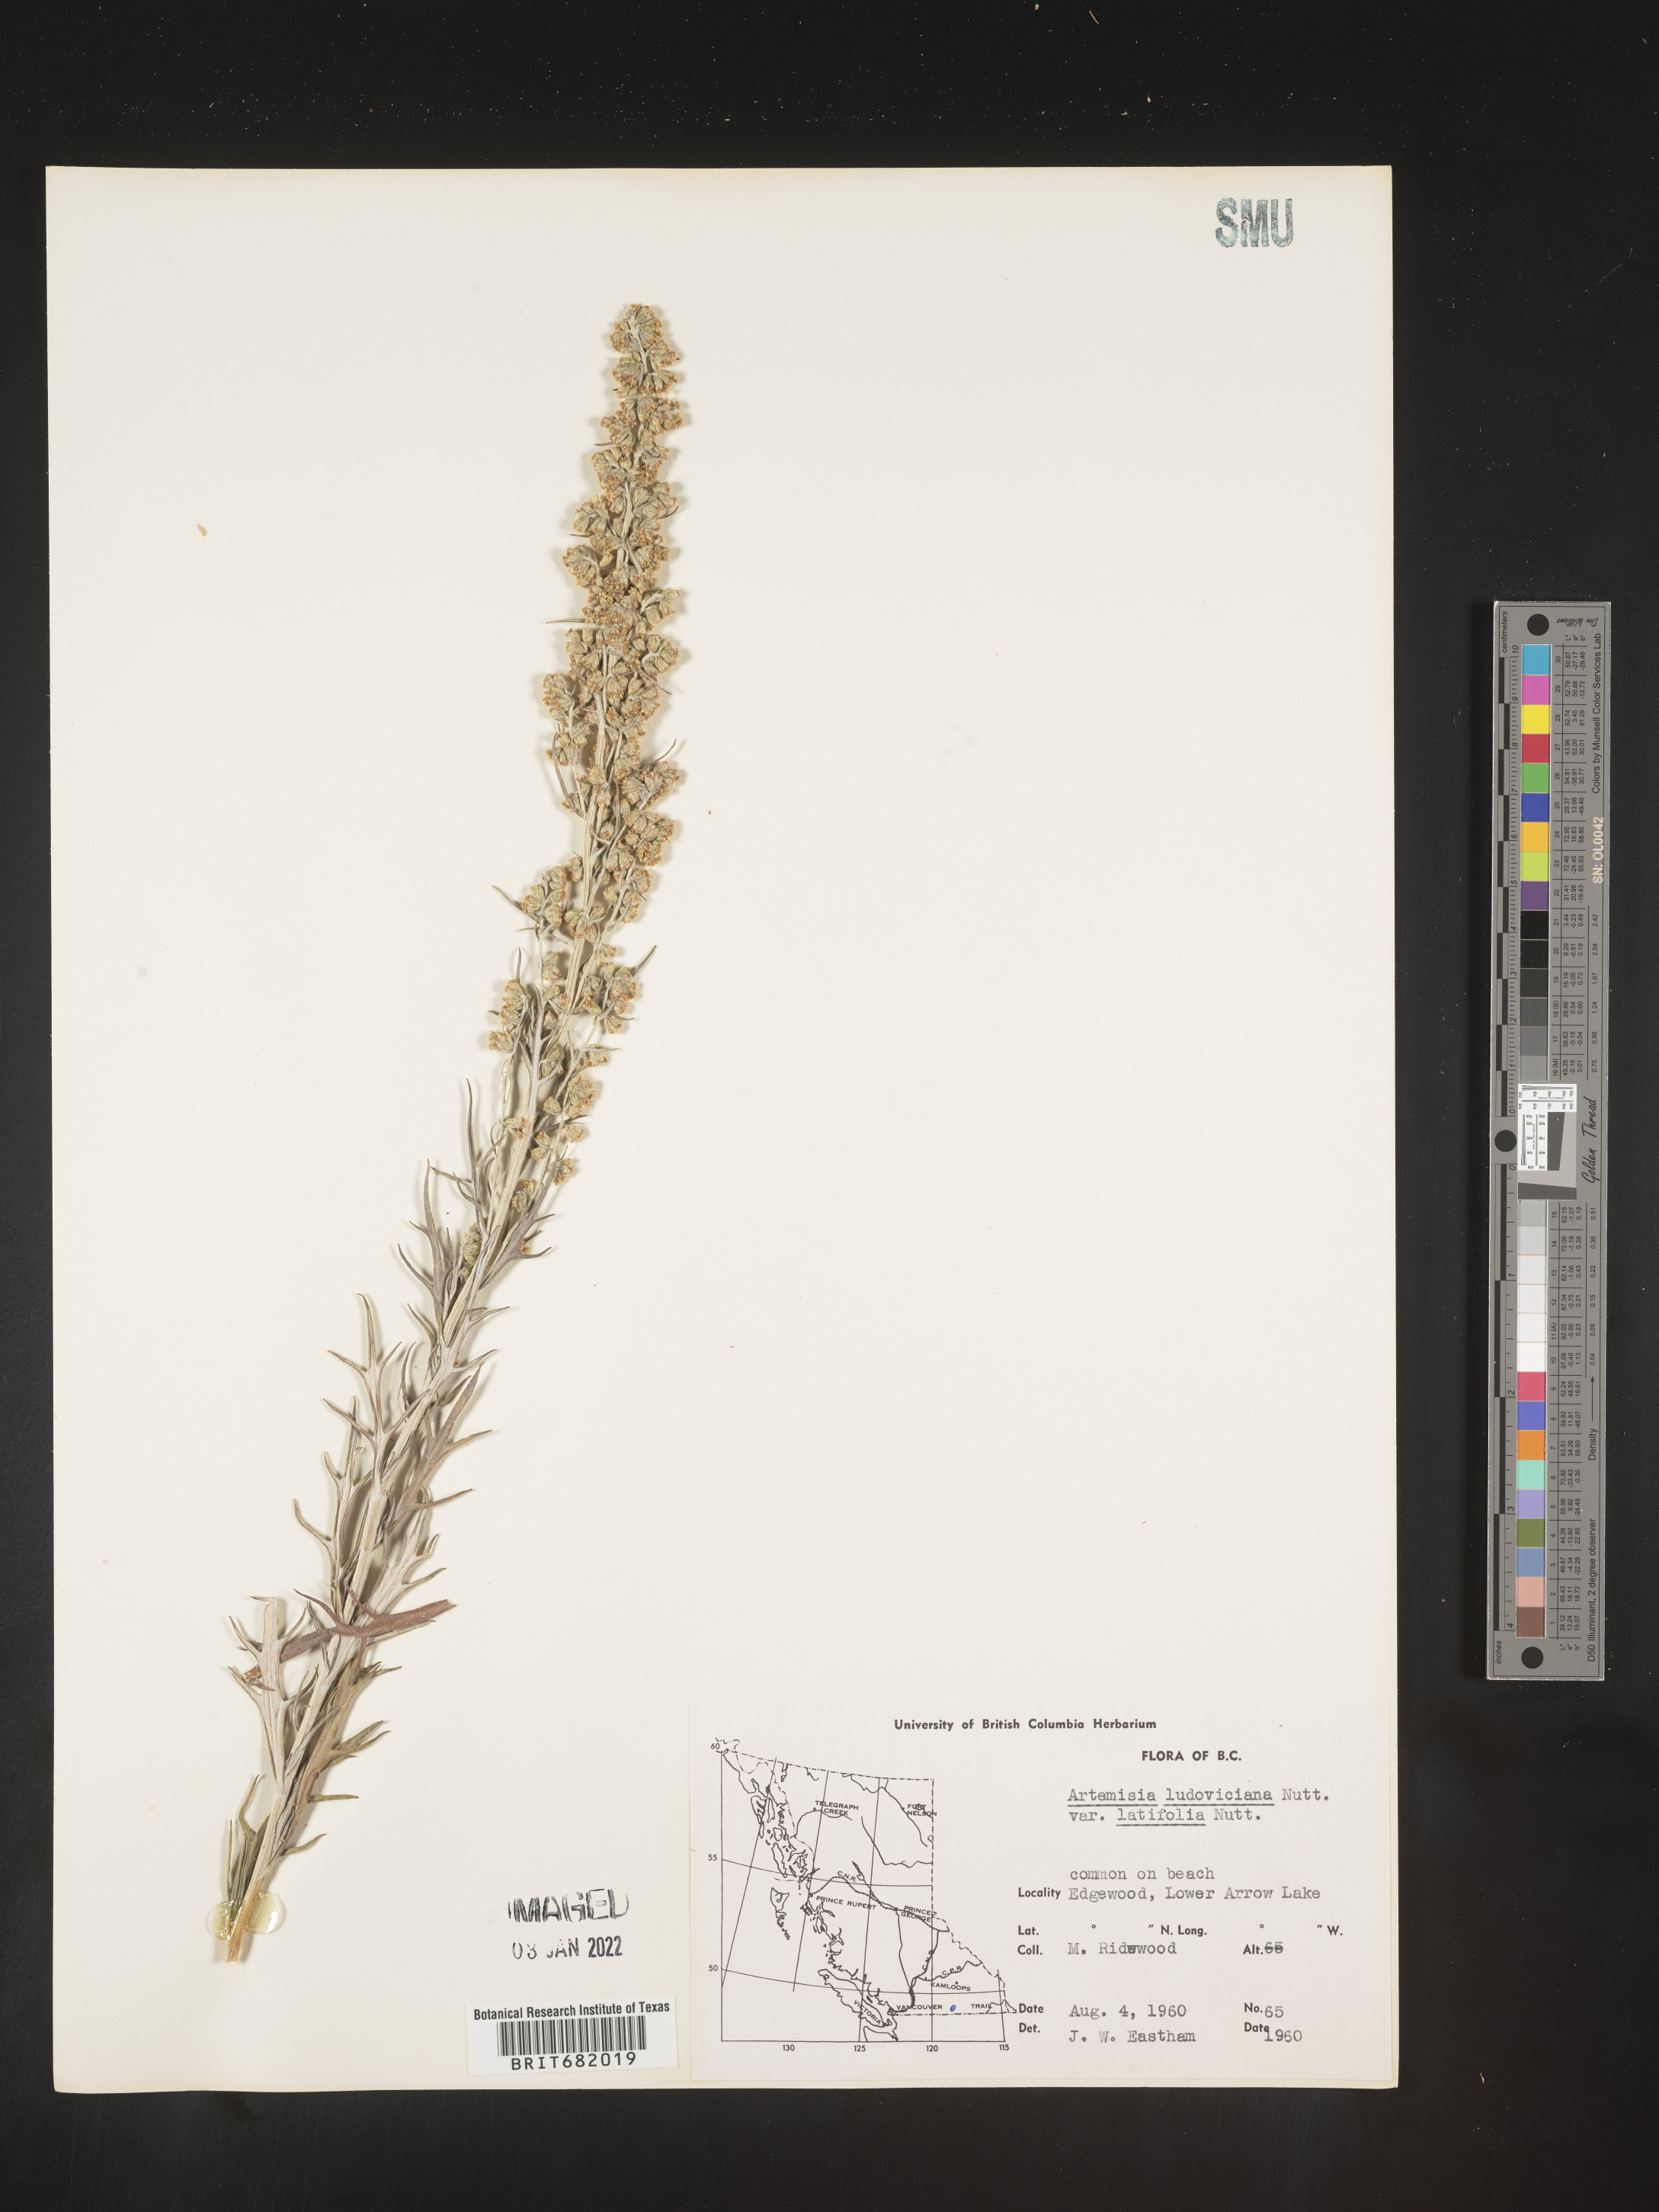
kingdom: Plantae
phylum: Tracheophyta
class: Magnoliopsida
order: Asterales
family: Asteraceae
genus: Artemisia
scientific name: Artemisia ludoviciana
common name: Western mugwort
